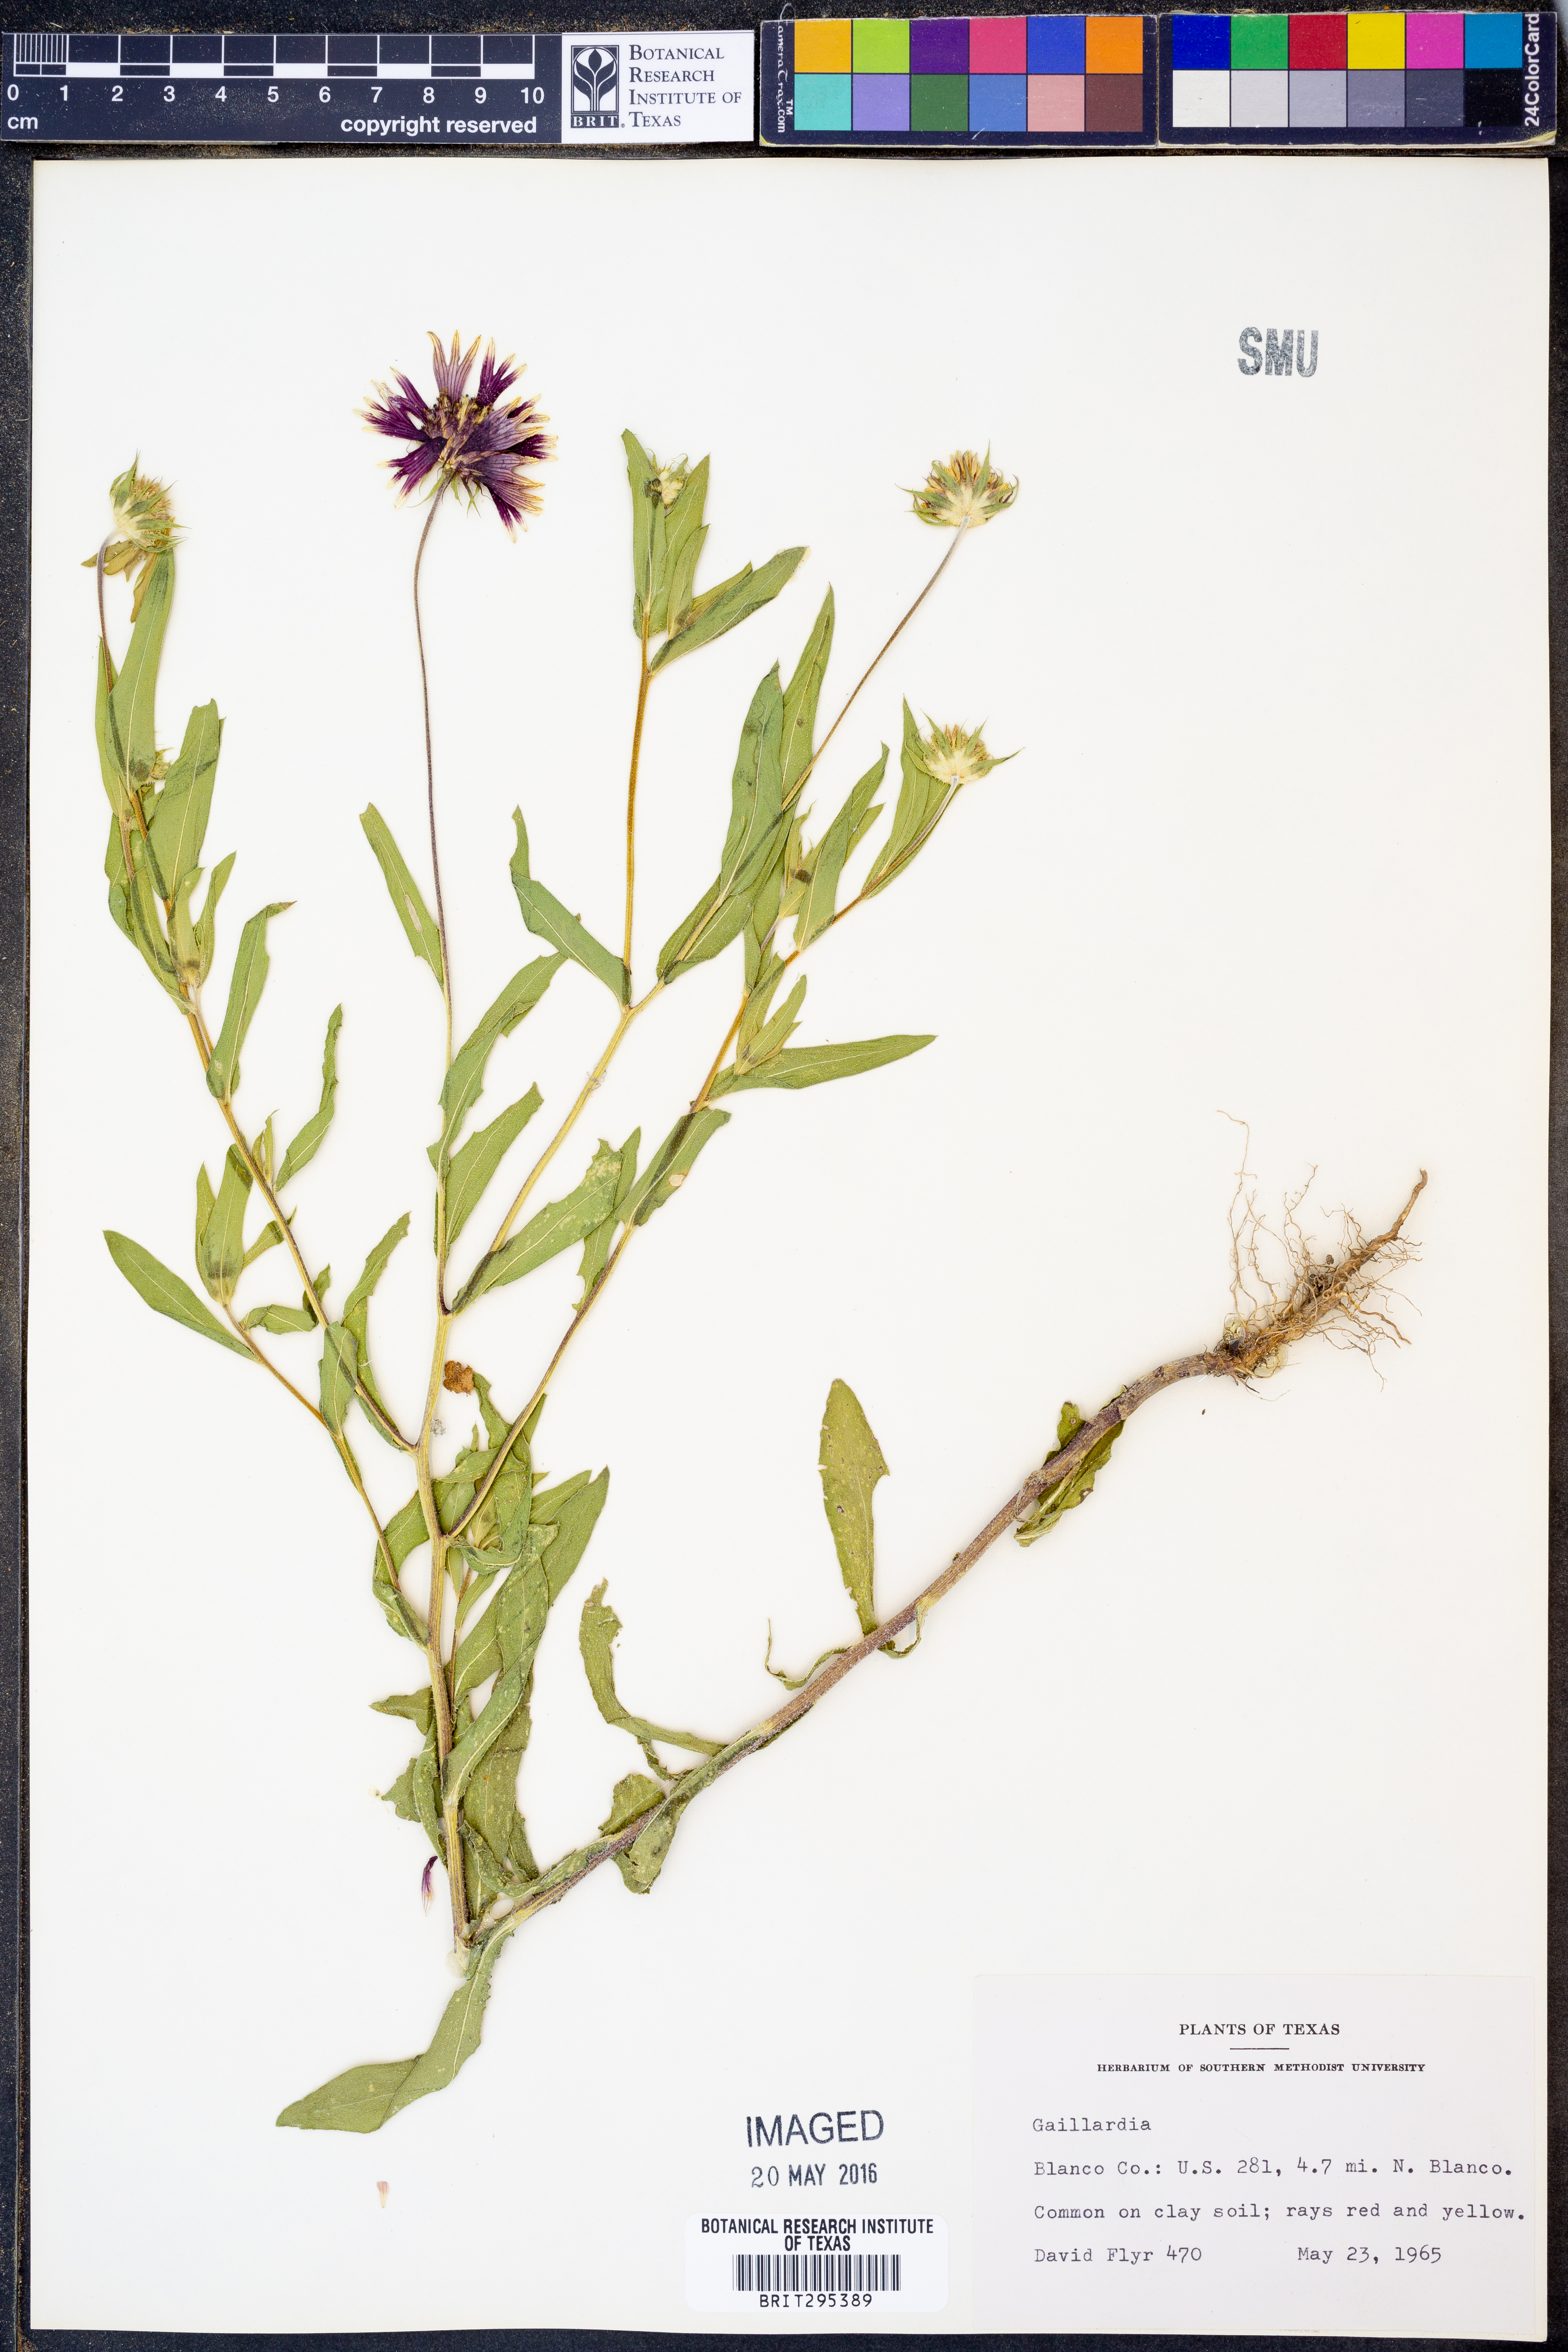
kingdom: Plantae
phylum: Tracheophyta
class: Magnoliopsida
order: Asterales
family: Asteraceae
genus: Gaillardia
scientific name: Gaillardia
